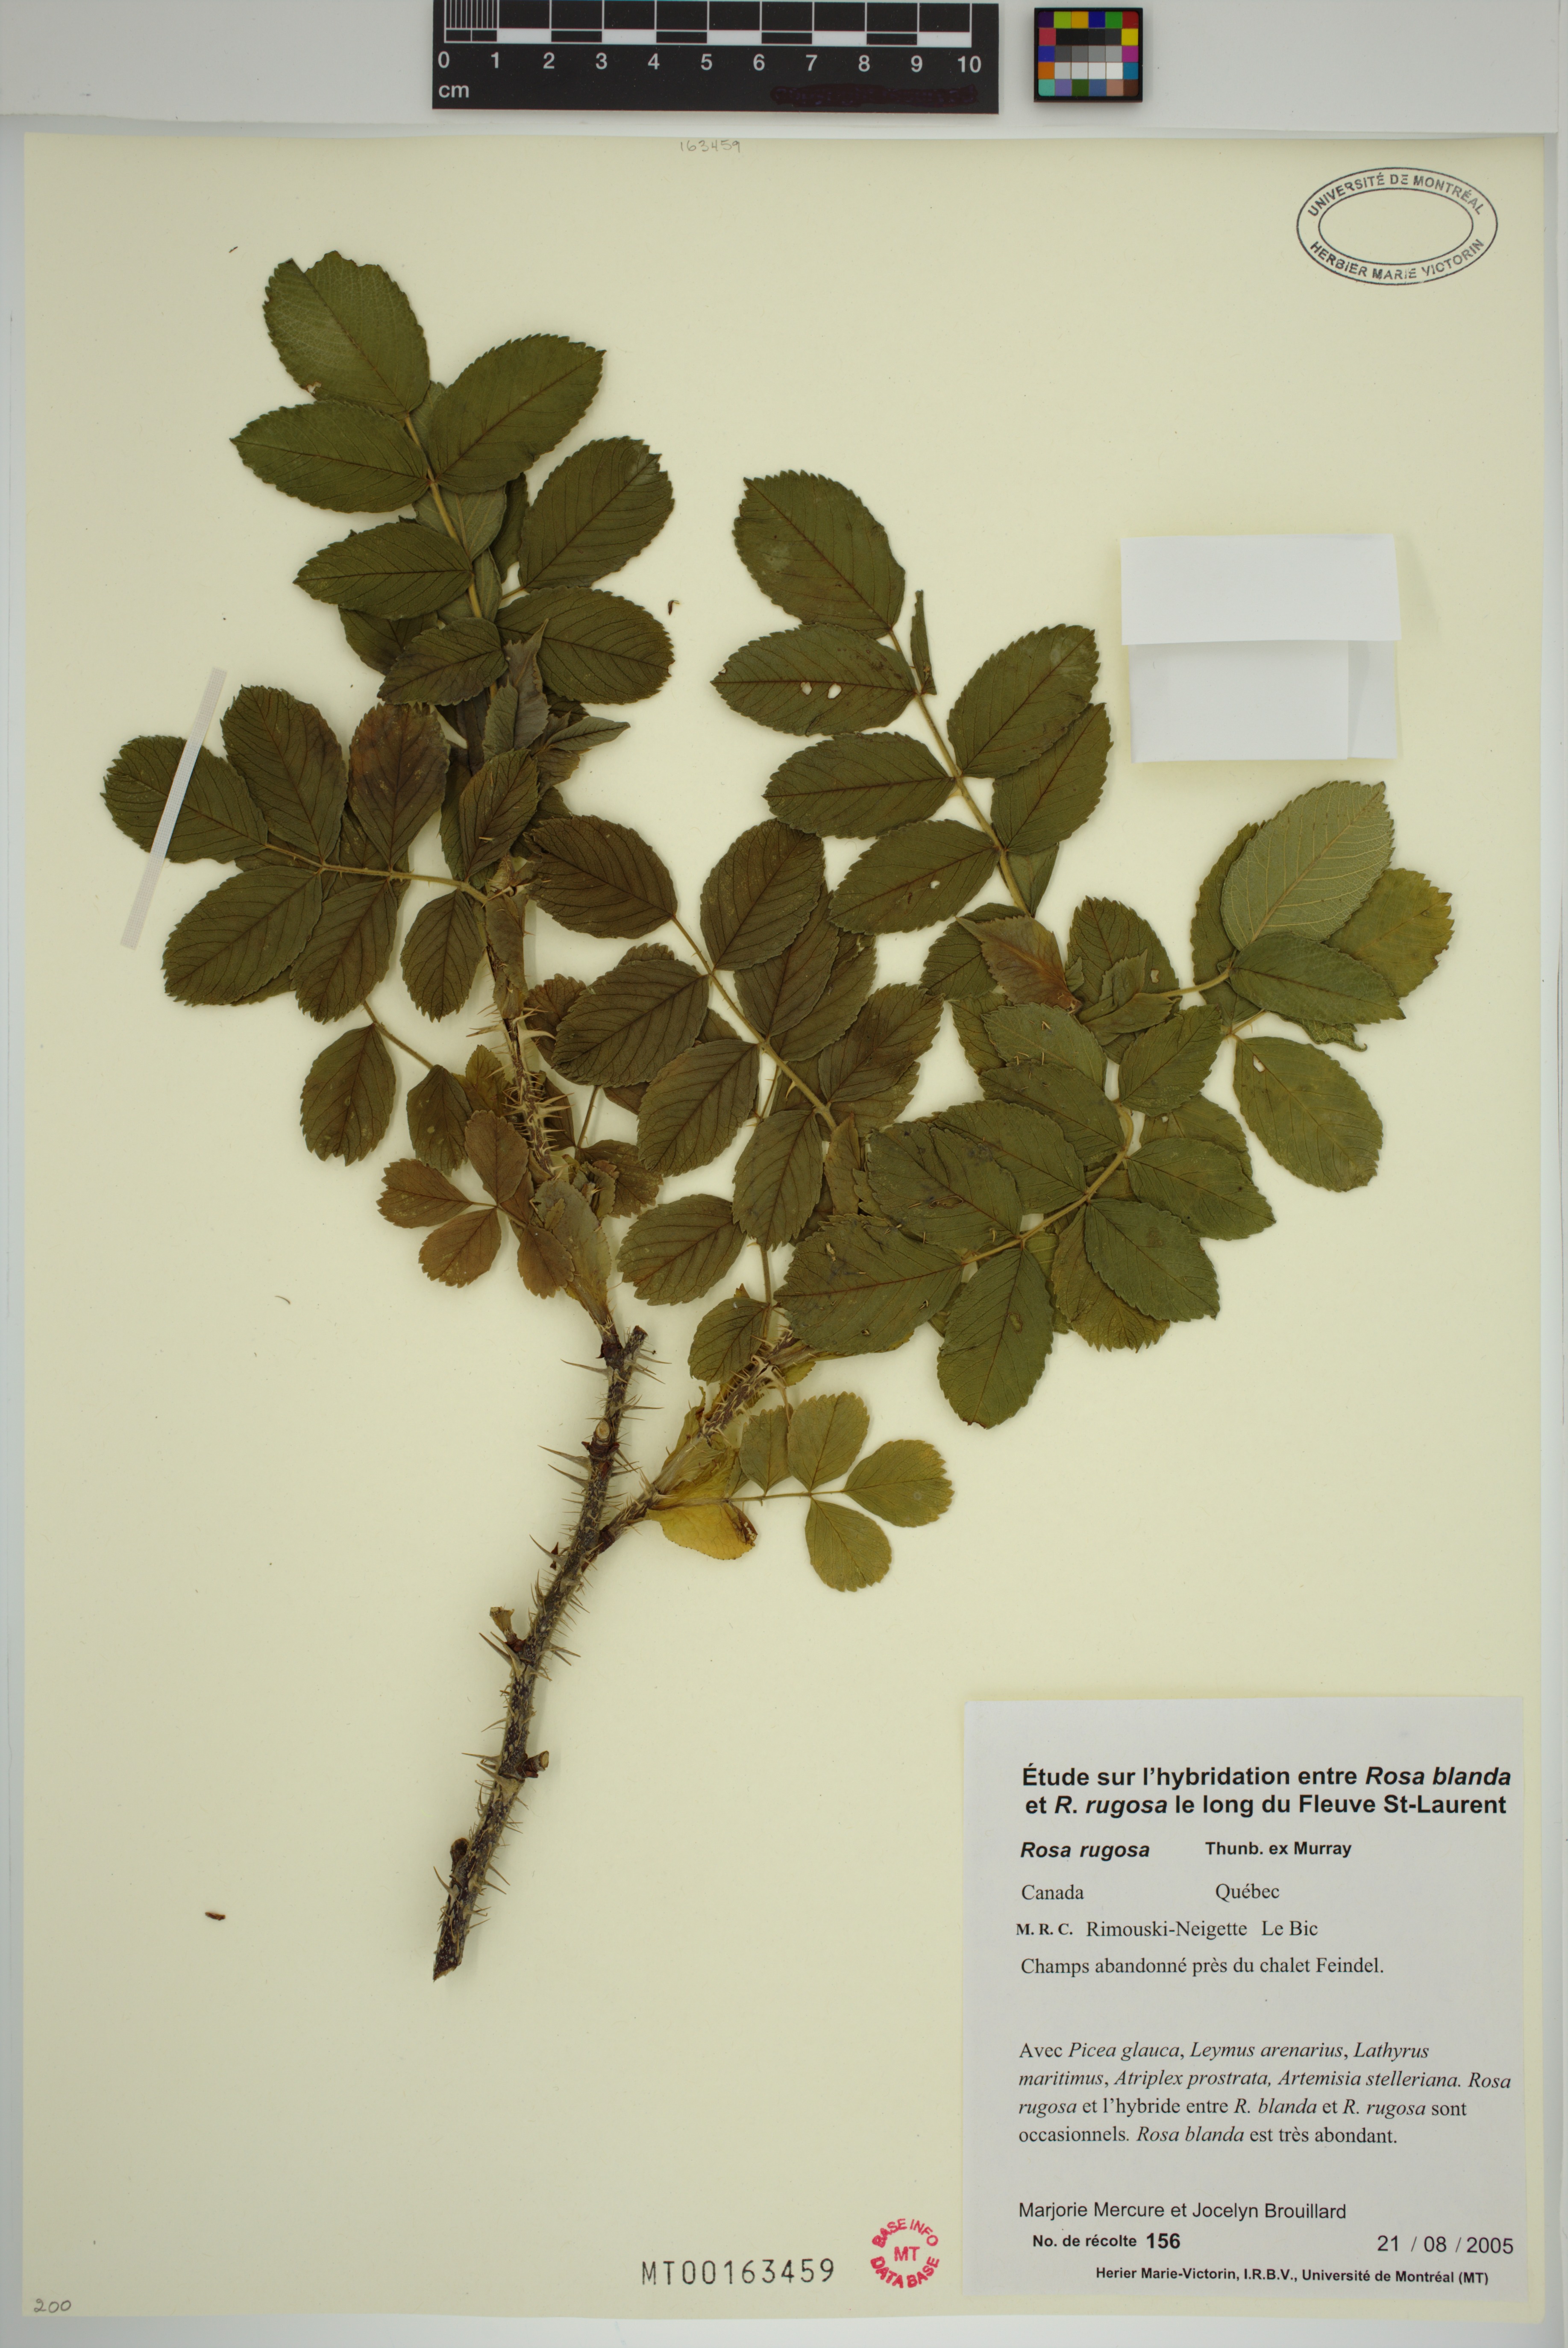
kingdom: Plantae
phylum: Tracheophyta
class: Magnoliopsida
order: Rosales
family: Rosaceae
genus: Rosa
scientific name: Rosa rugosa
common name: Japanese rose
